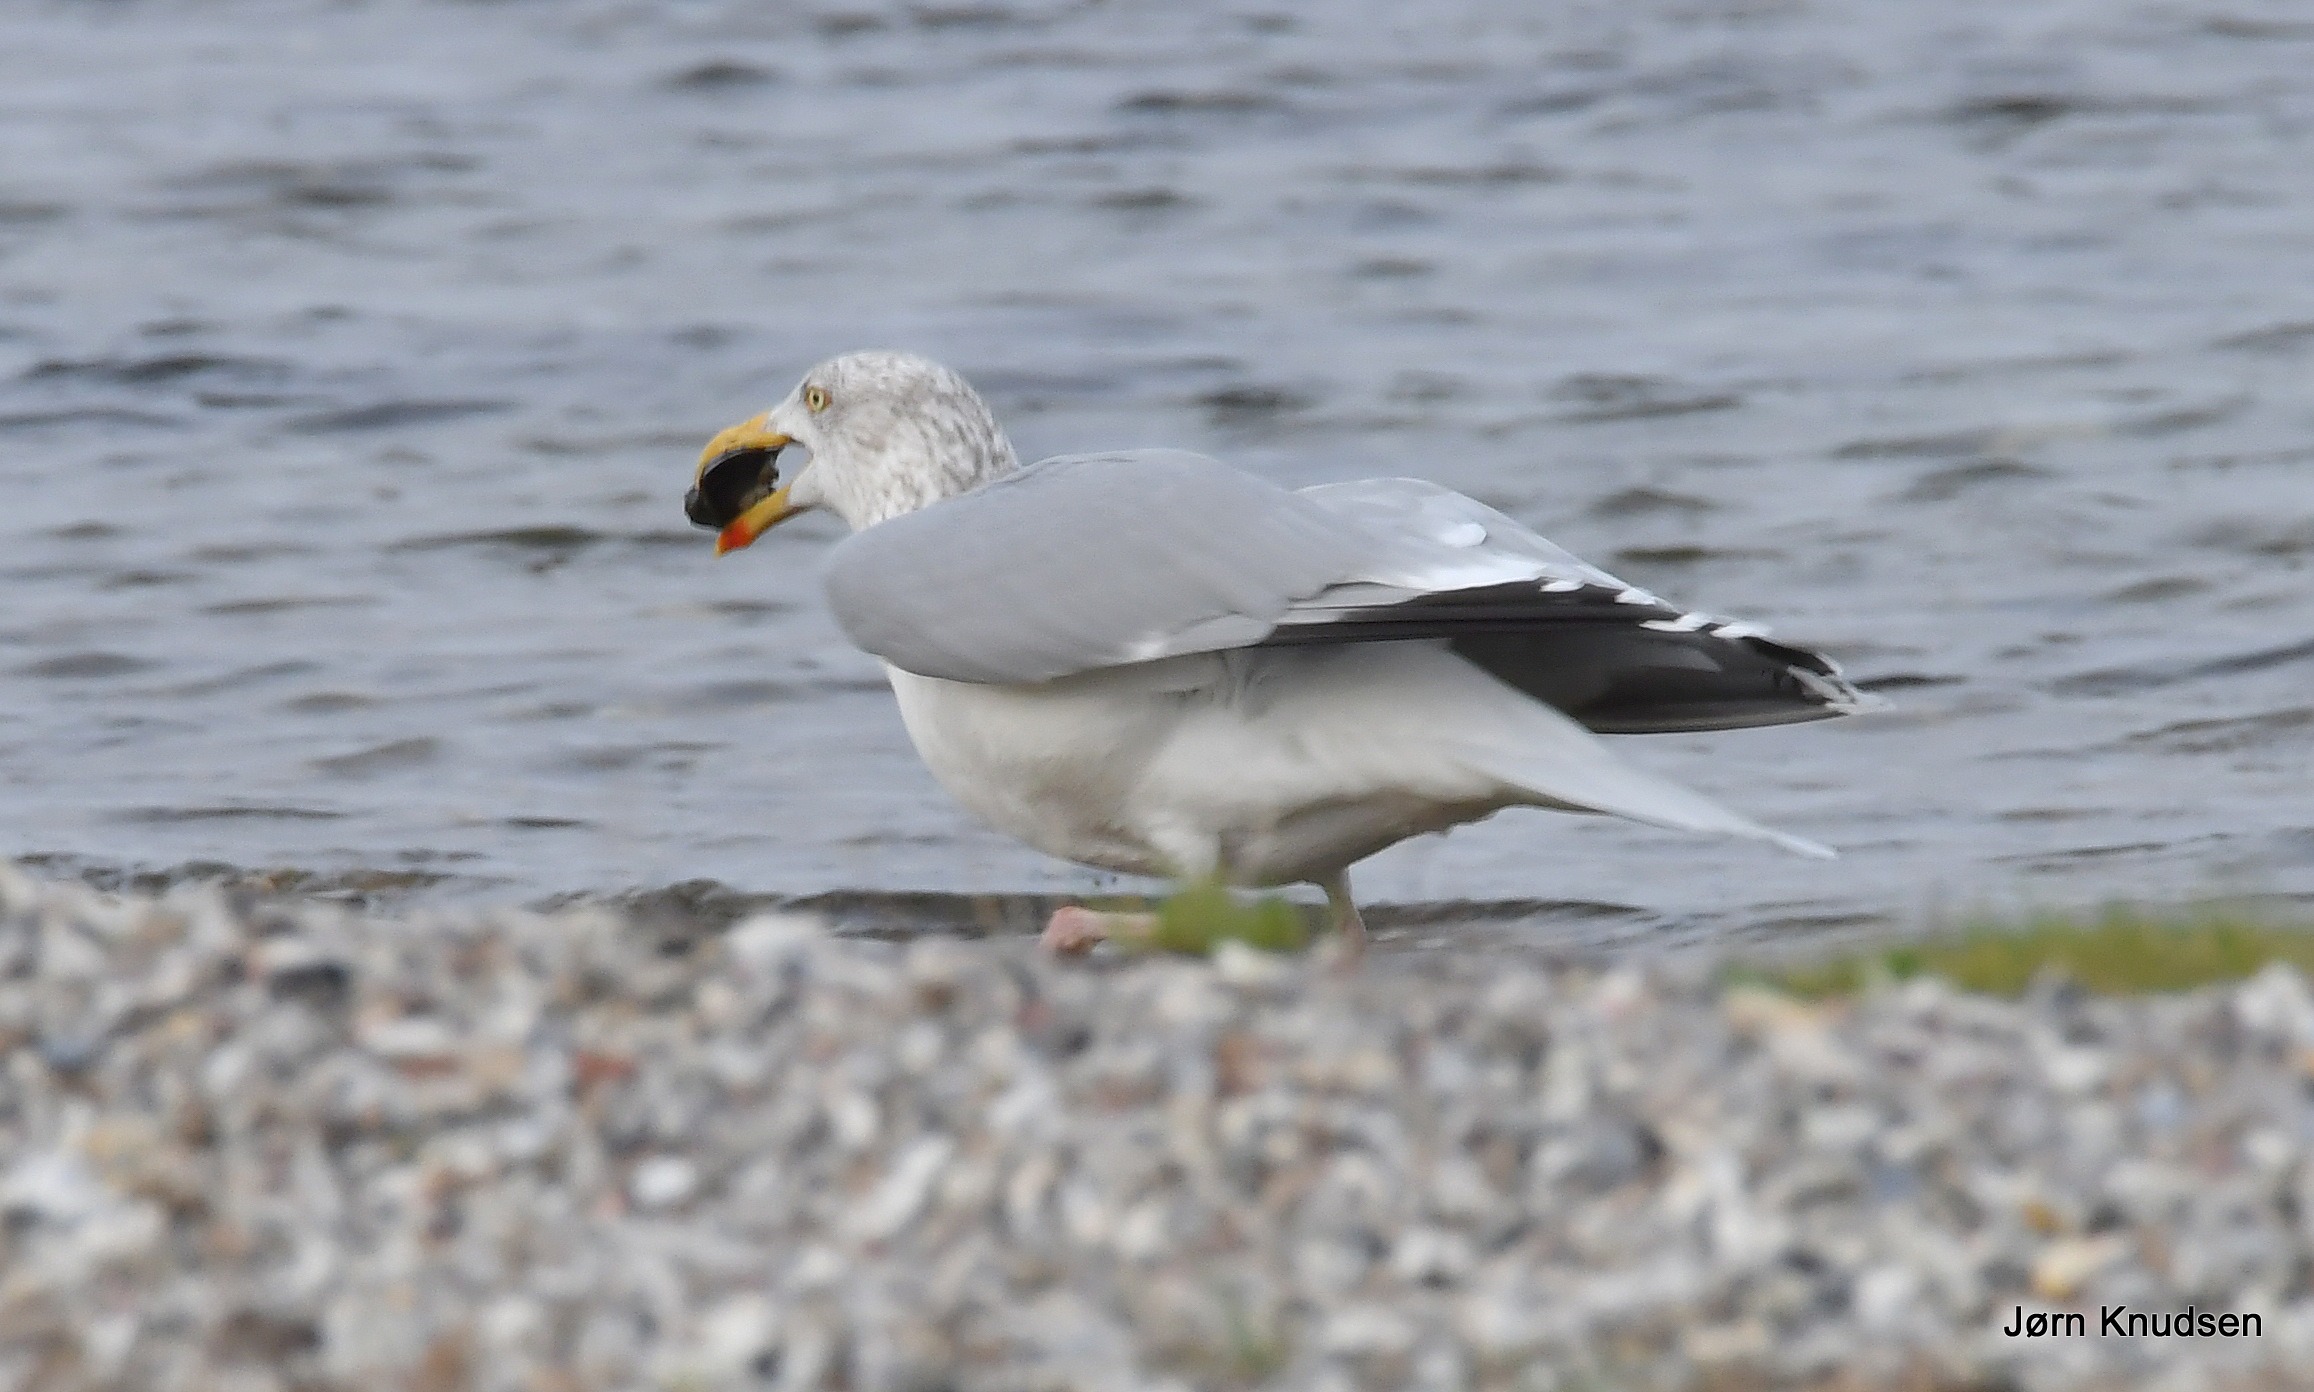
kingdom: Animalia
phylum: Chordata
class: Aves
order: Charadriiformes
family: Laridae
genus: Larus
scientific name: Larus argentatus
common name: Sølvmåge
